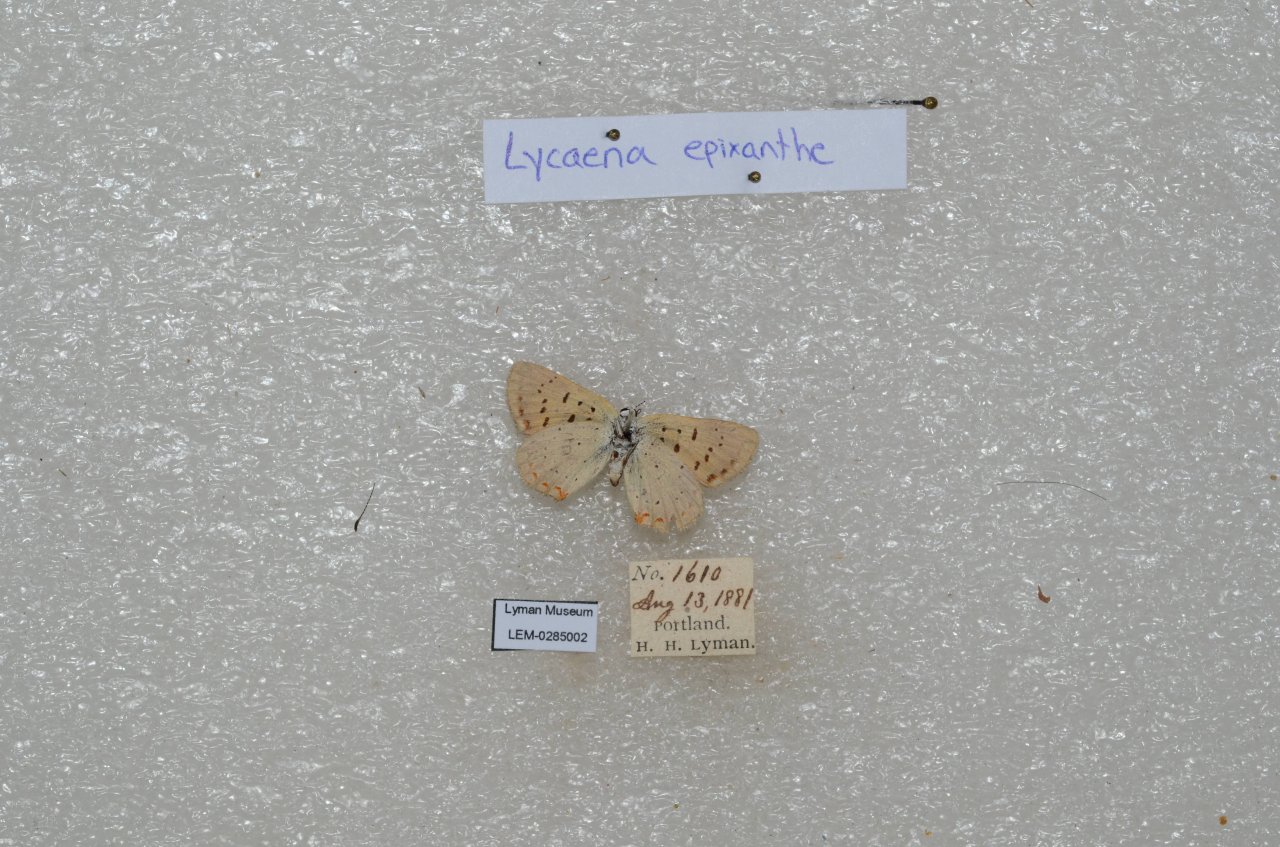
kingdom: Animalia
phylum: Arthropoda
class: Insecta
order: Lepidoptera
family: Sesiidae
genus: Sesia
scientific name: Sesia Lycaena epixanthe
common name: Bog Copper
